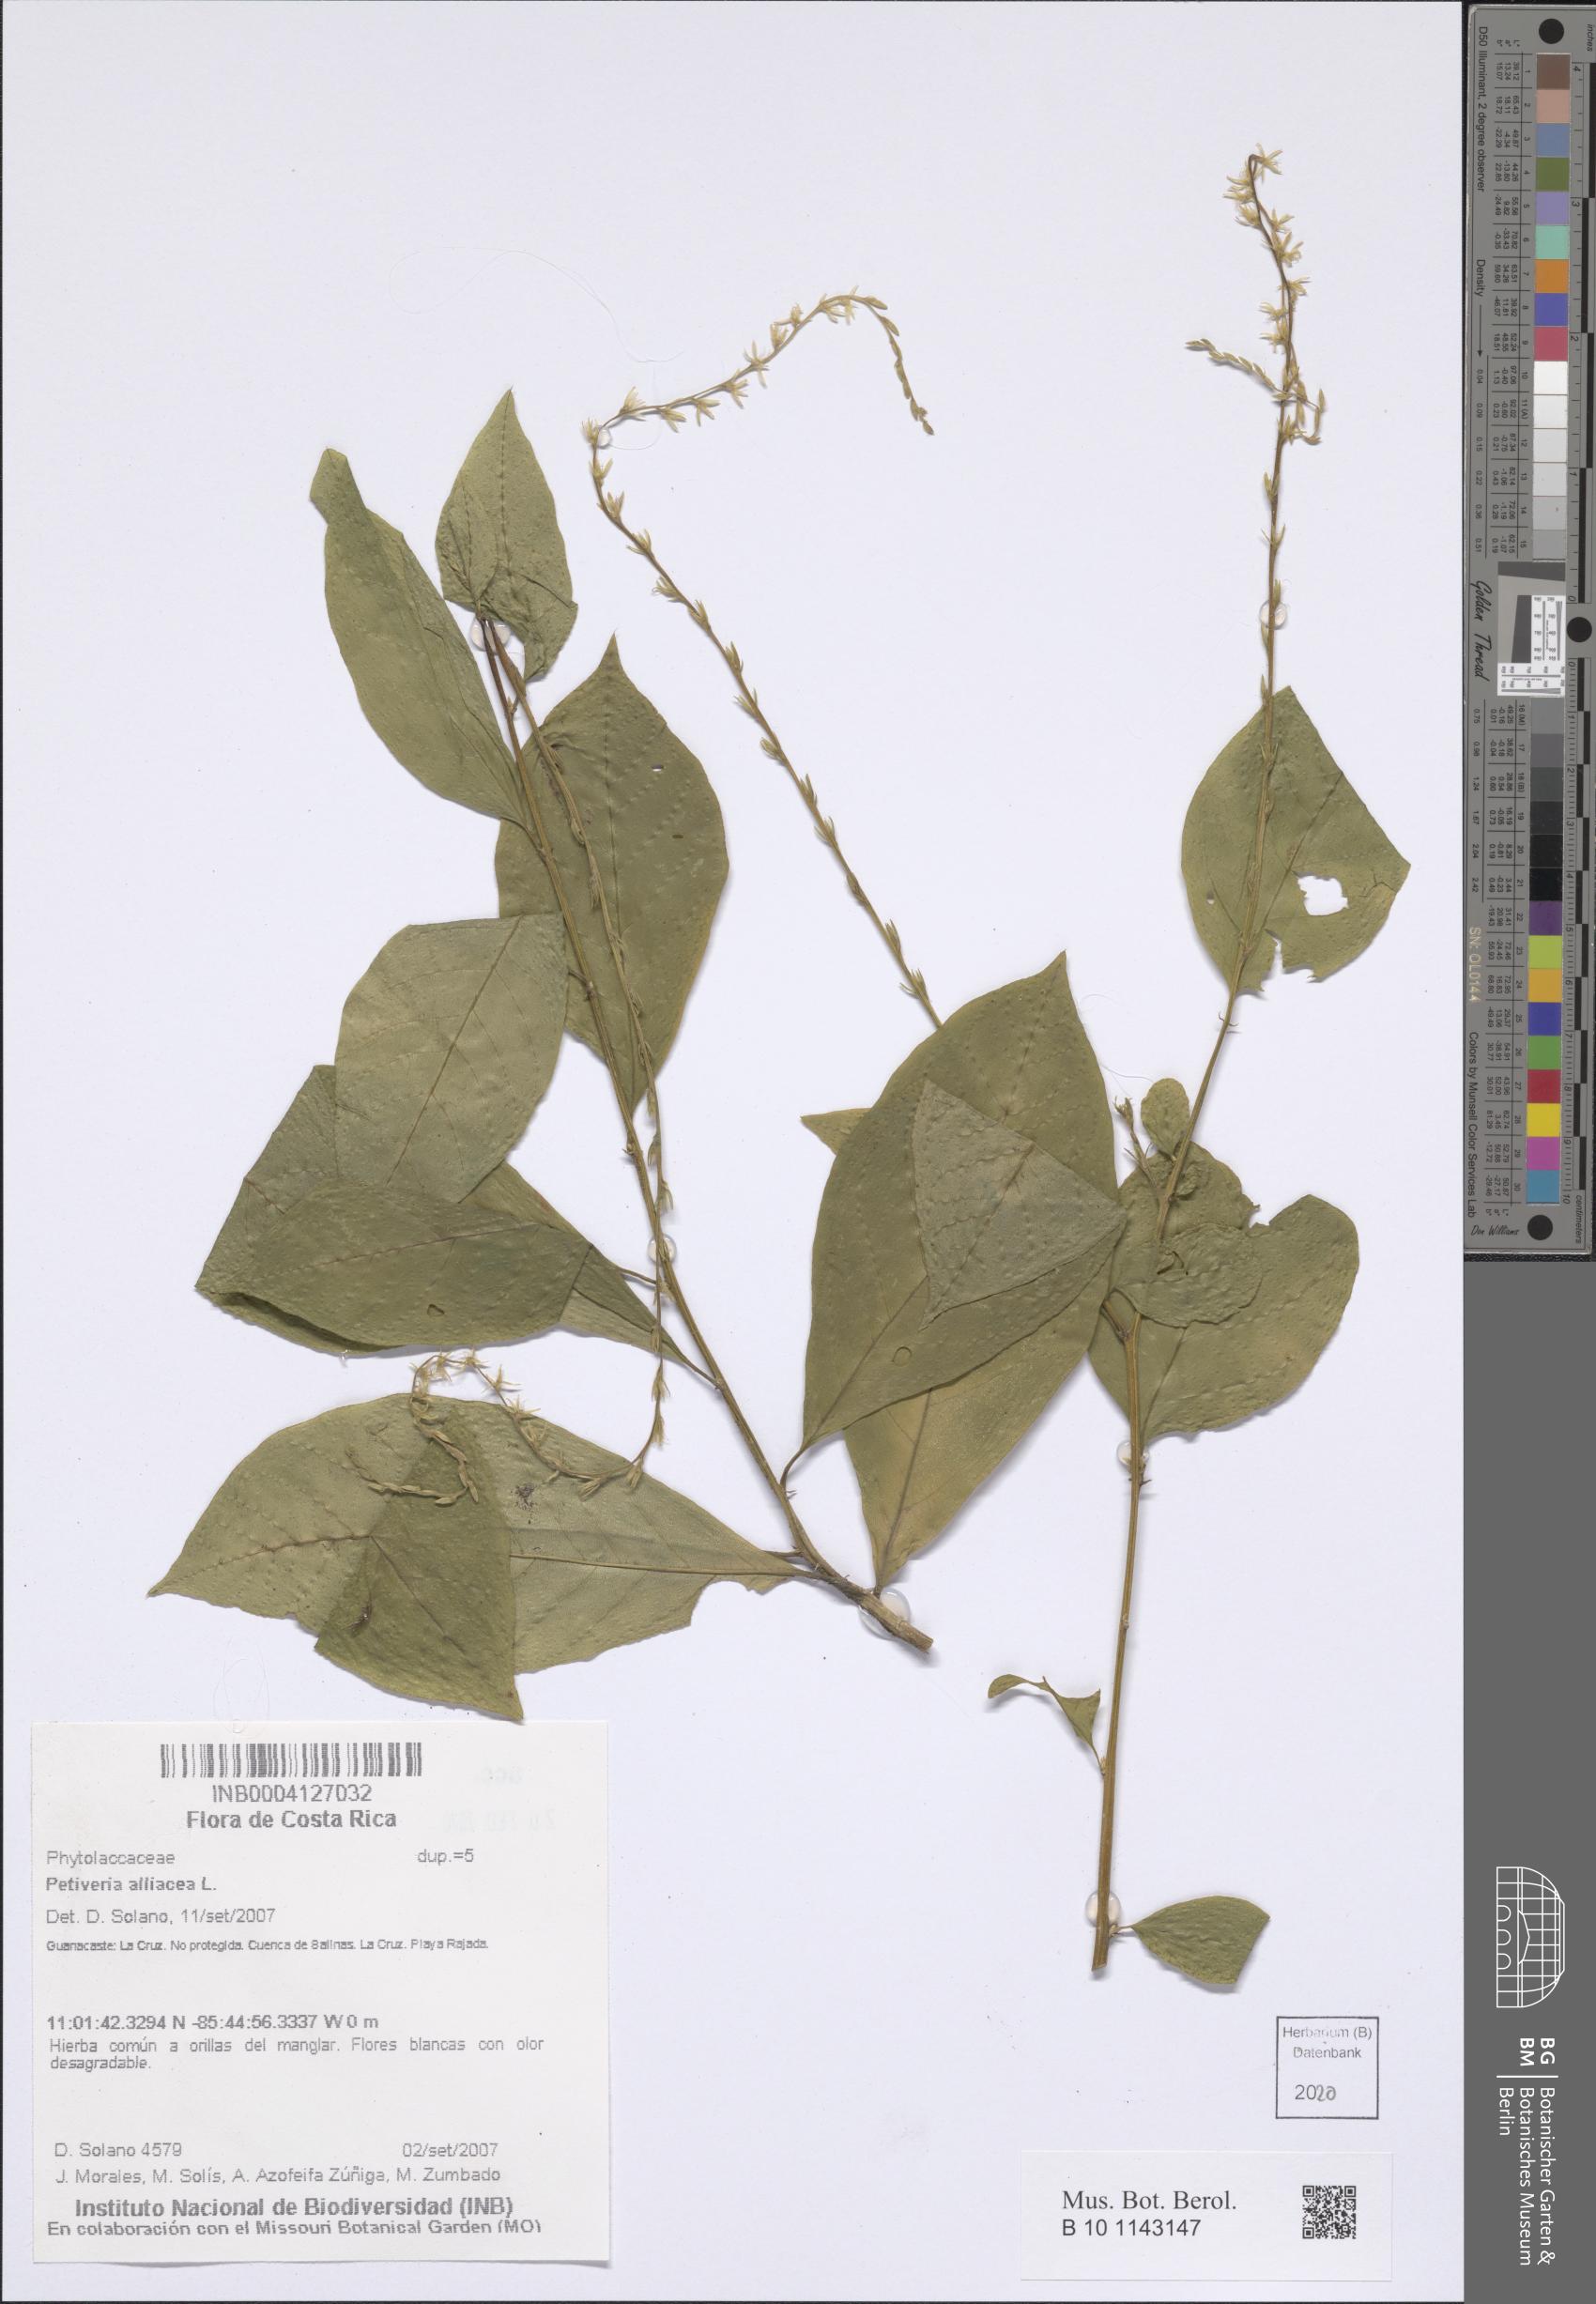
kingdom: Plantae
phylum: Tracheophyta
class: Magnoliopsida
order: Caryophyllales
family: Phytolaccaceae
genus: Petiveria
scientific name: Petiveria alliacea
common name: Garlicweed
